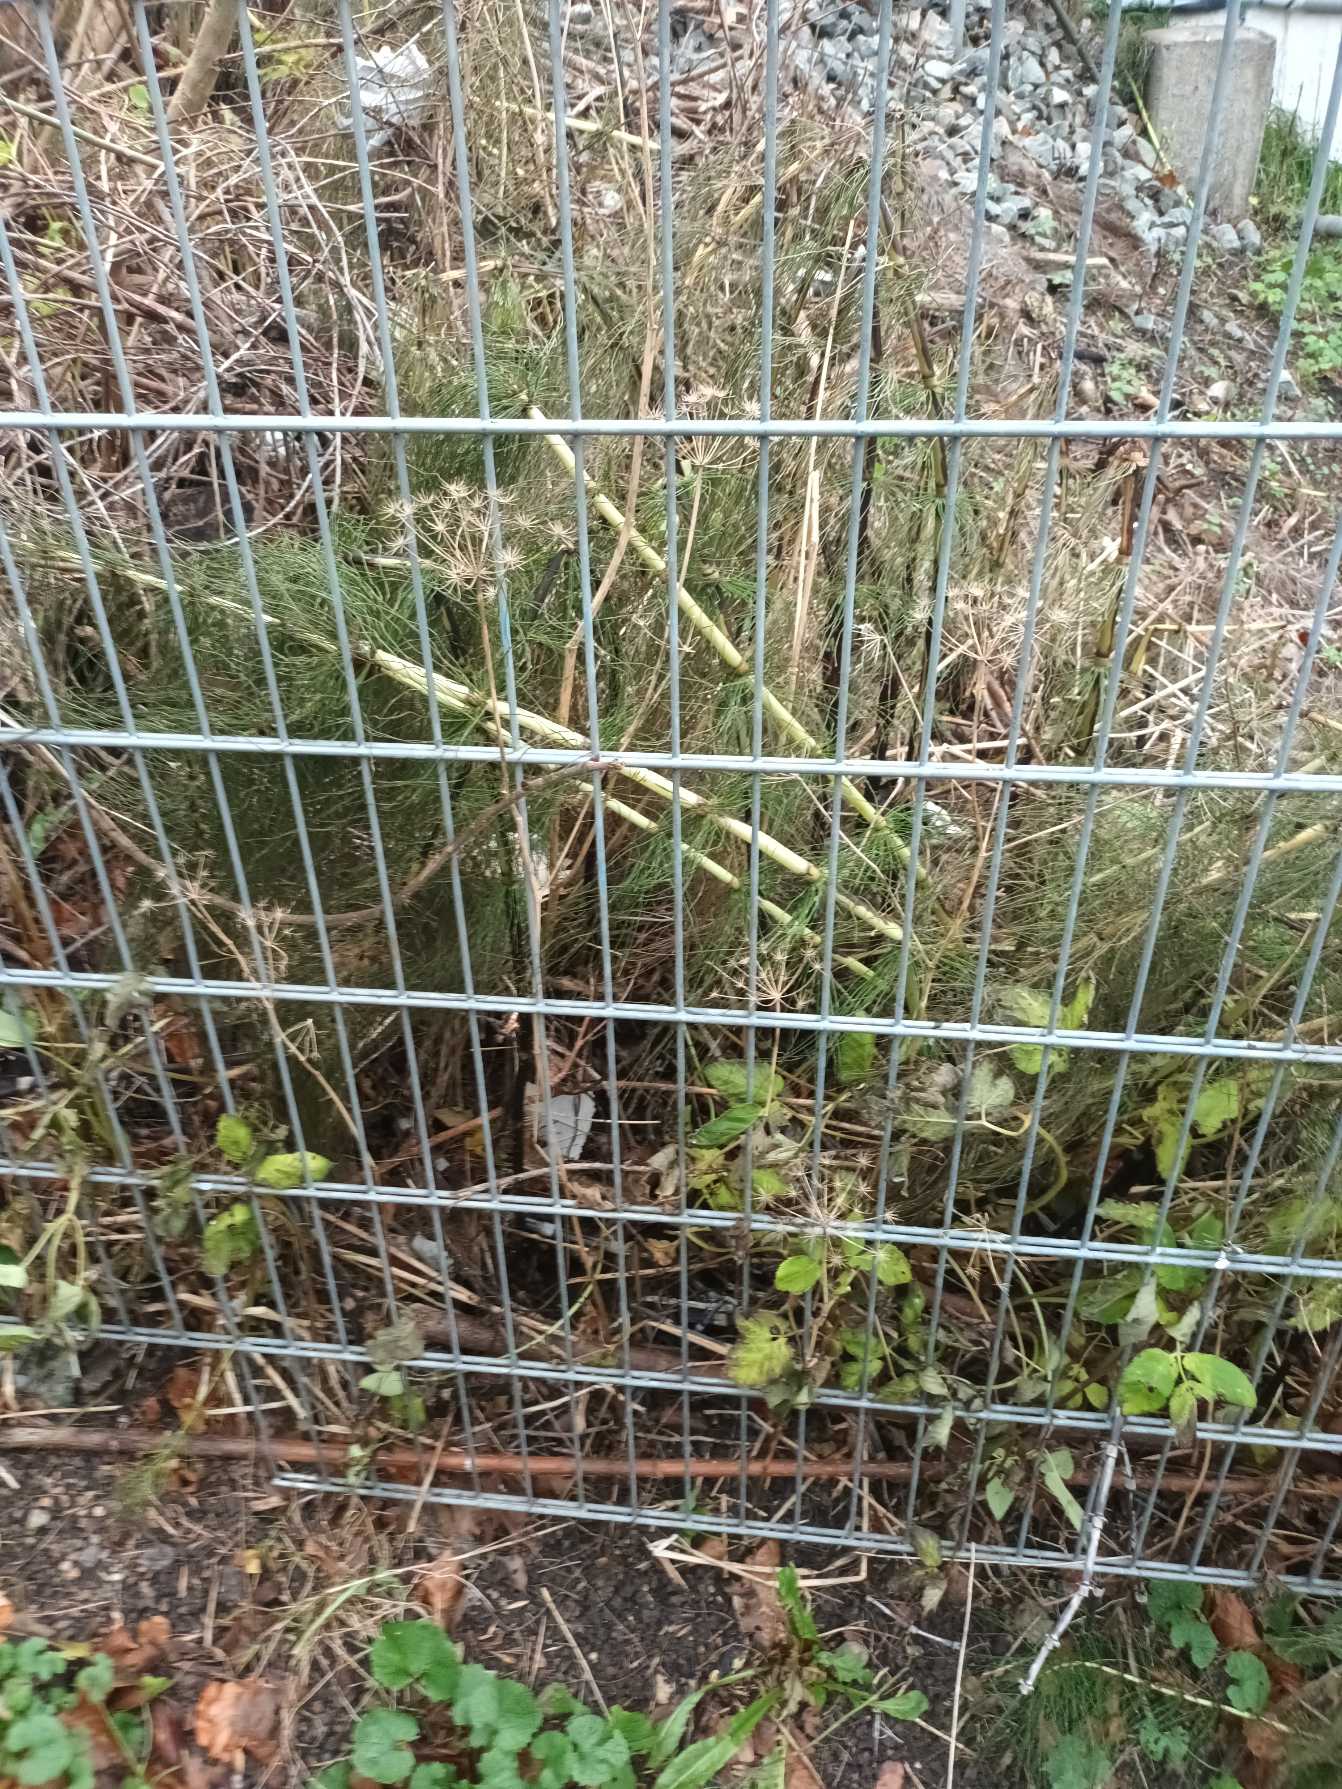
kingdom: Plantae
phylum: Tracheophyta
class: Polypodiopsida
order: Equisetales
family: Equisetaceae
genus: Equisetum
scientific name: Equisetum telmateia
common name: Elfenbens-padderok
